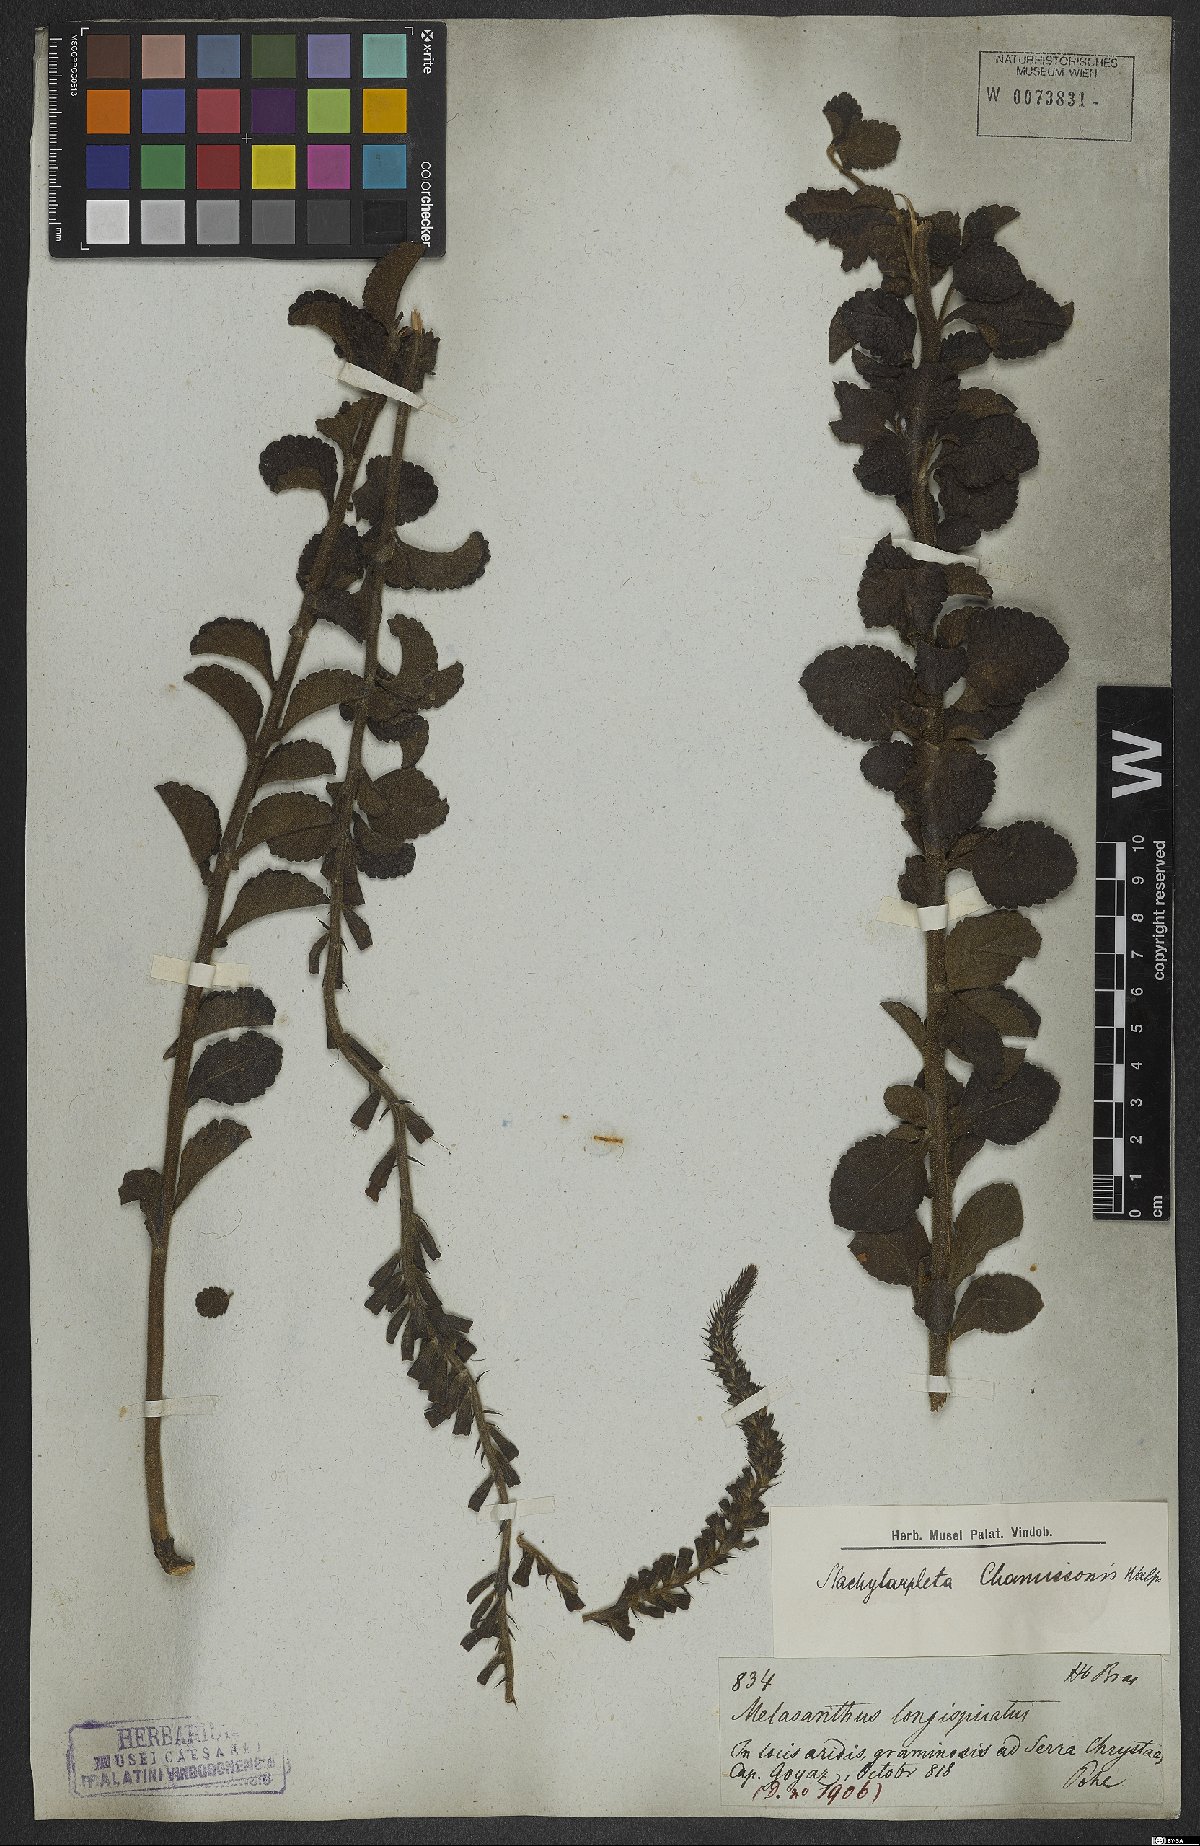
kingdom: Plantae
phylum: Tracheophyta
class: Magnoliopsida
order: Lamiales
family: Verbenaceae
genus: Stachytarpheta
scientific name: Stachytarpheta longispicata
